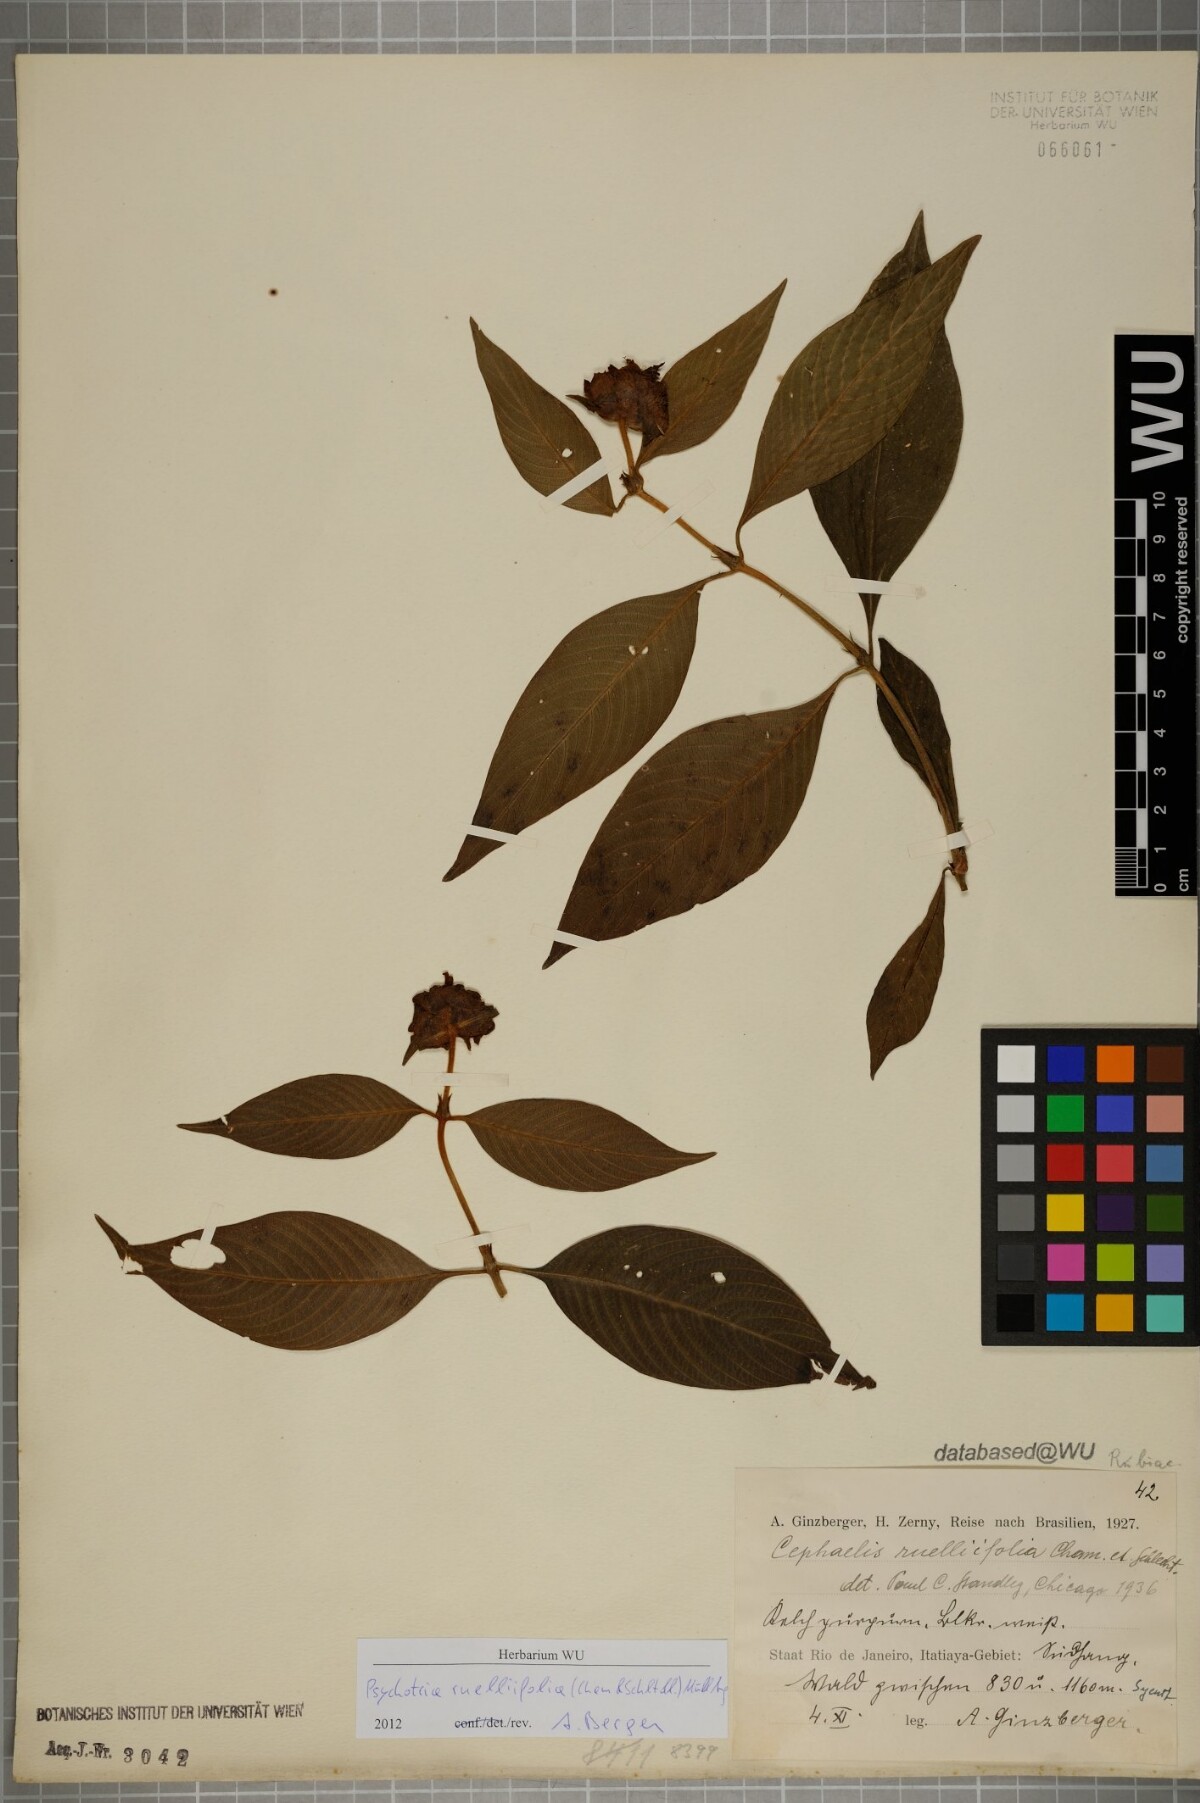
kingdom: Plantae
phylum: Tracheophyta
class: Magnoliopsida
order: Gentianales
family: Rubiaceae
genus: Palicourea
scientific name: Palicourea ruelliifolia
